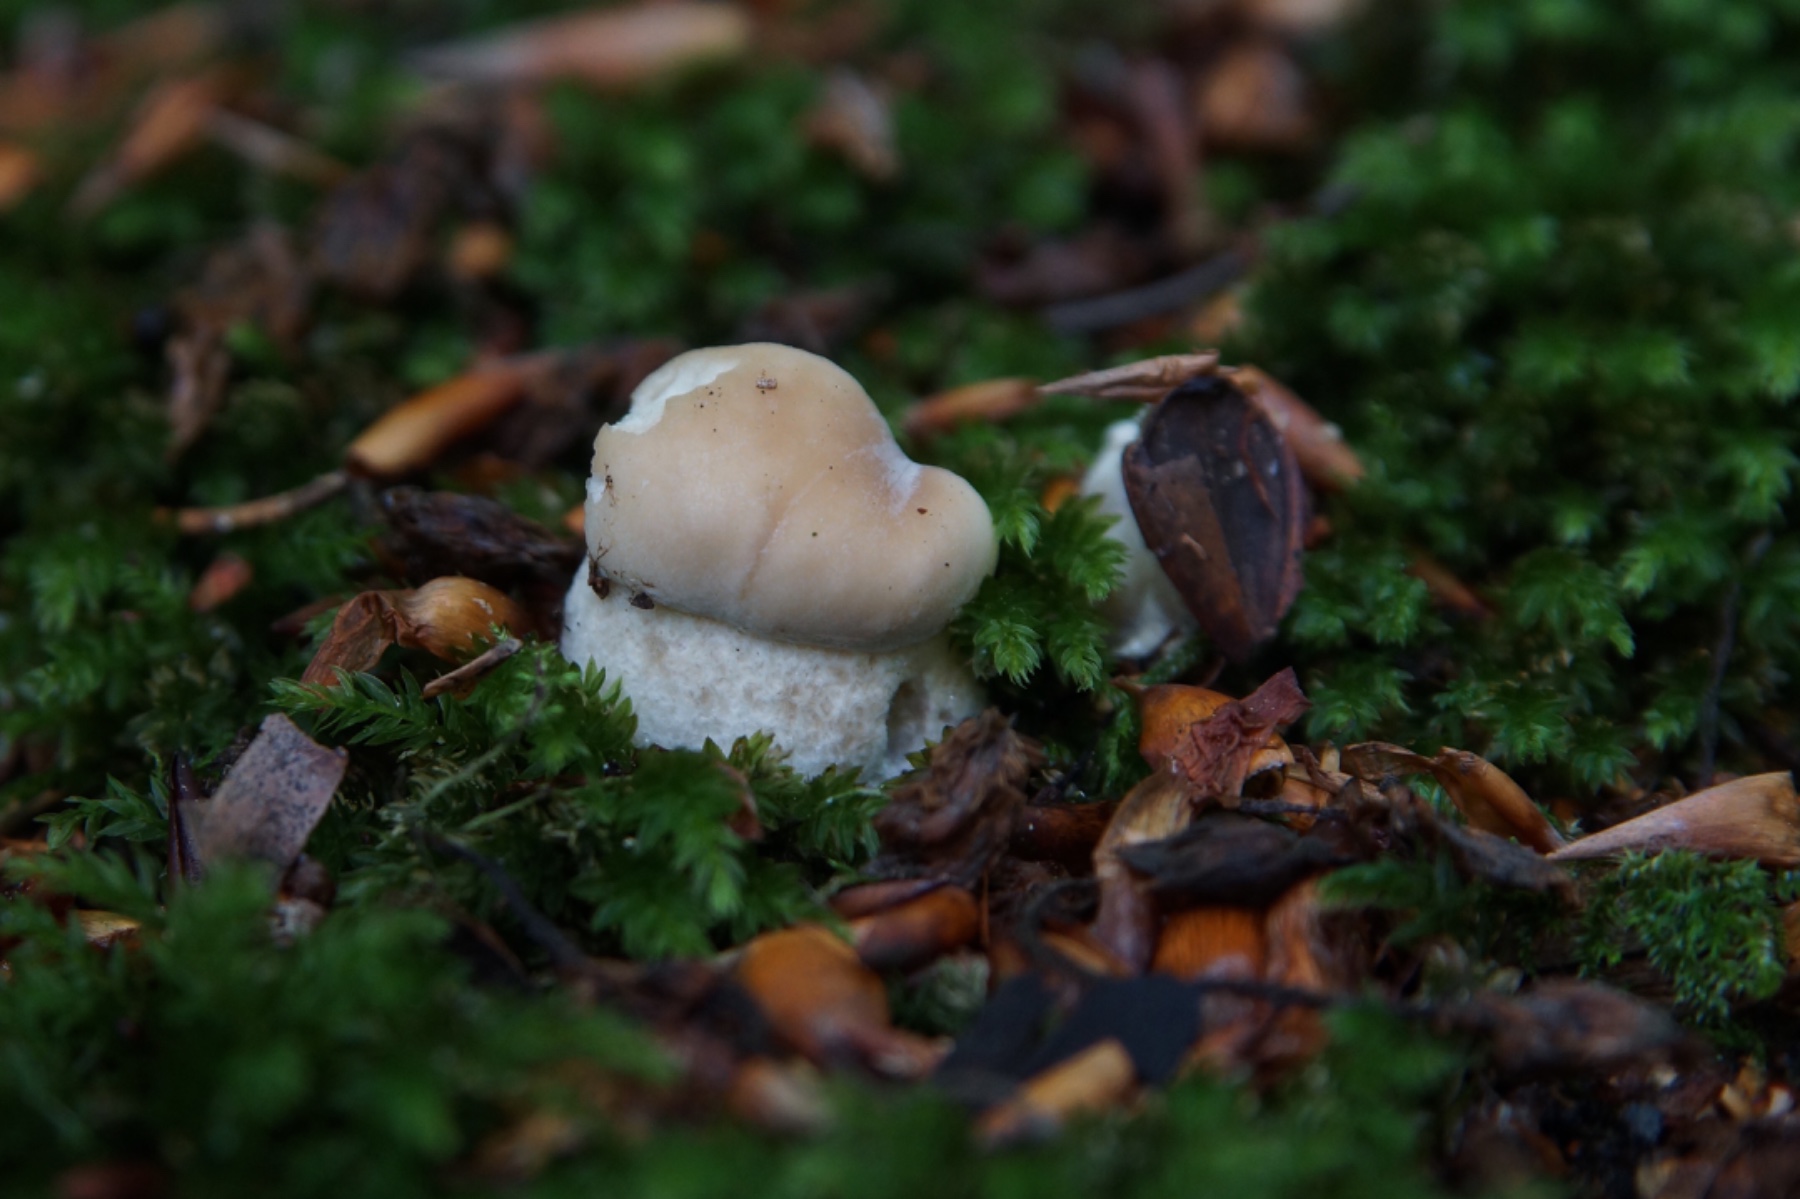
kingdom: Fungi
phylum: Basidiomycota
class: Agaricomycetes
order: Boletales
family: Boletaceae
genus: Boletus
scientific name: Boletus edulis
